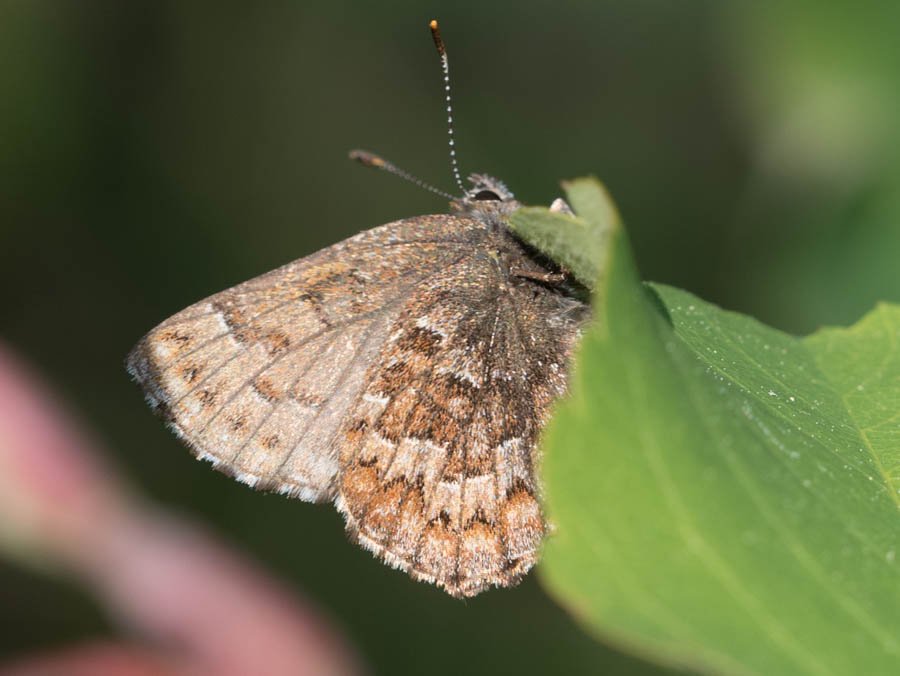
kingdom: Animalia
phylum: Arthropoda
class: Insecta
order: Lepidoptera
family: Lycaenidae
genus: Incisalia
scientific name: Incisalia niphon
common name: Eastern Pine Elfin
